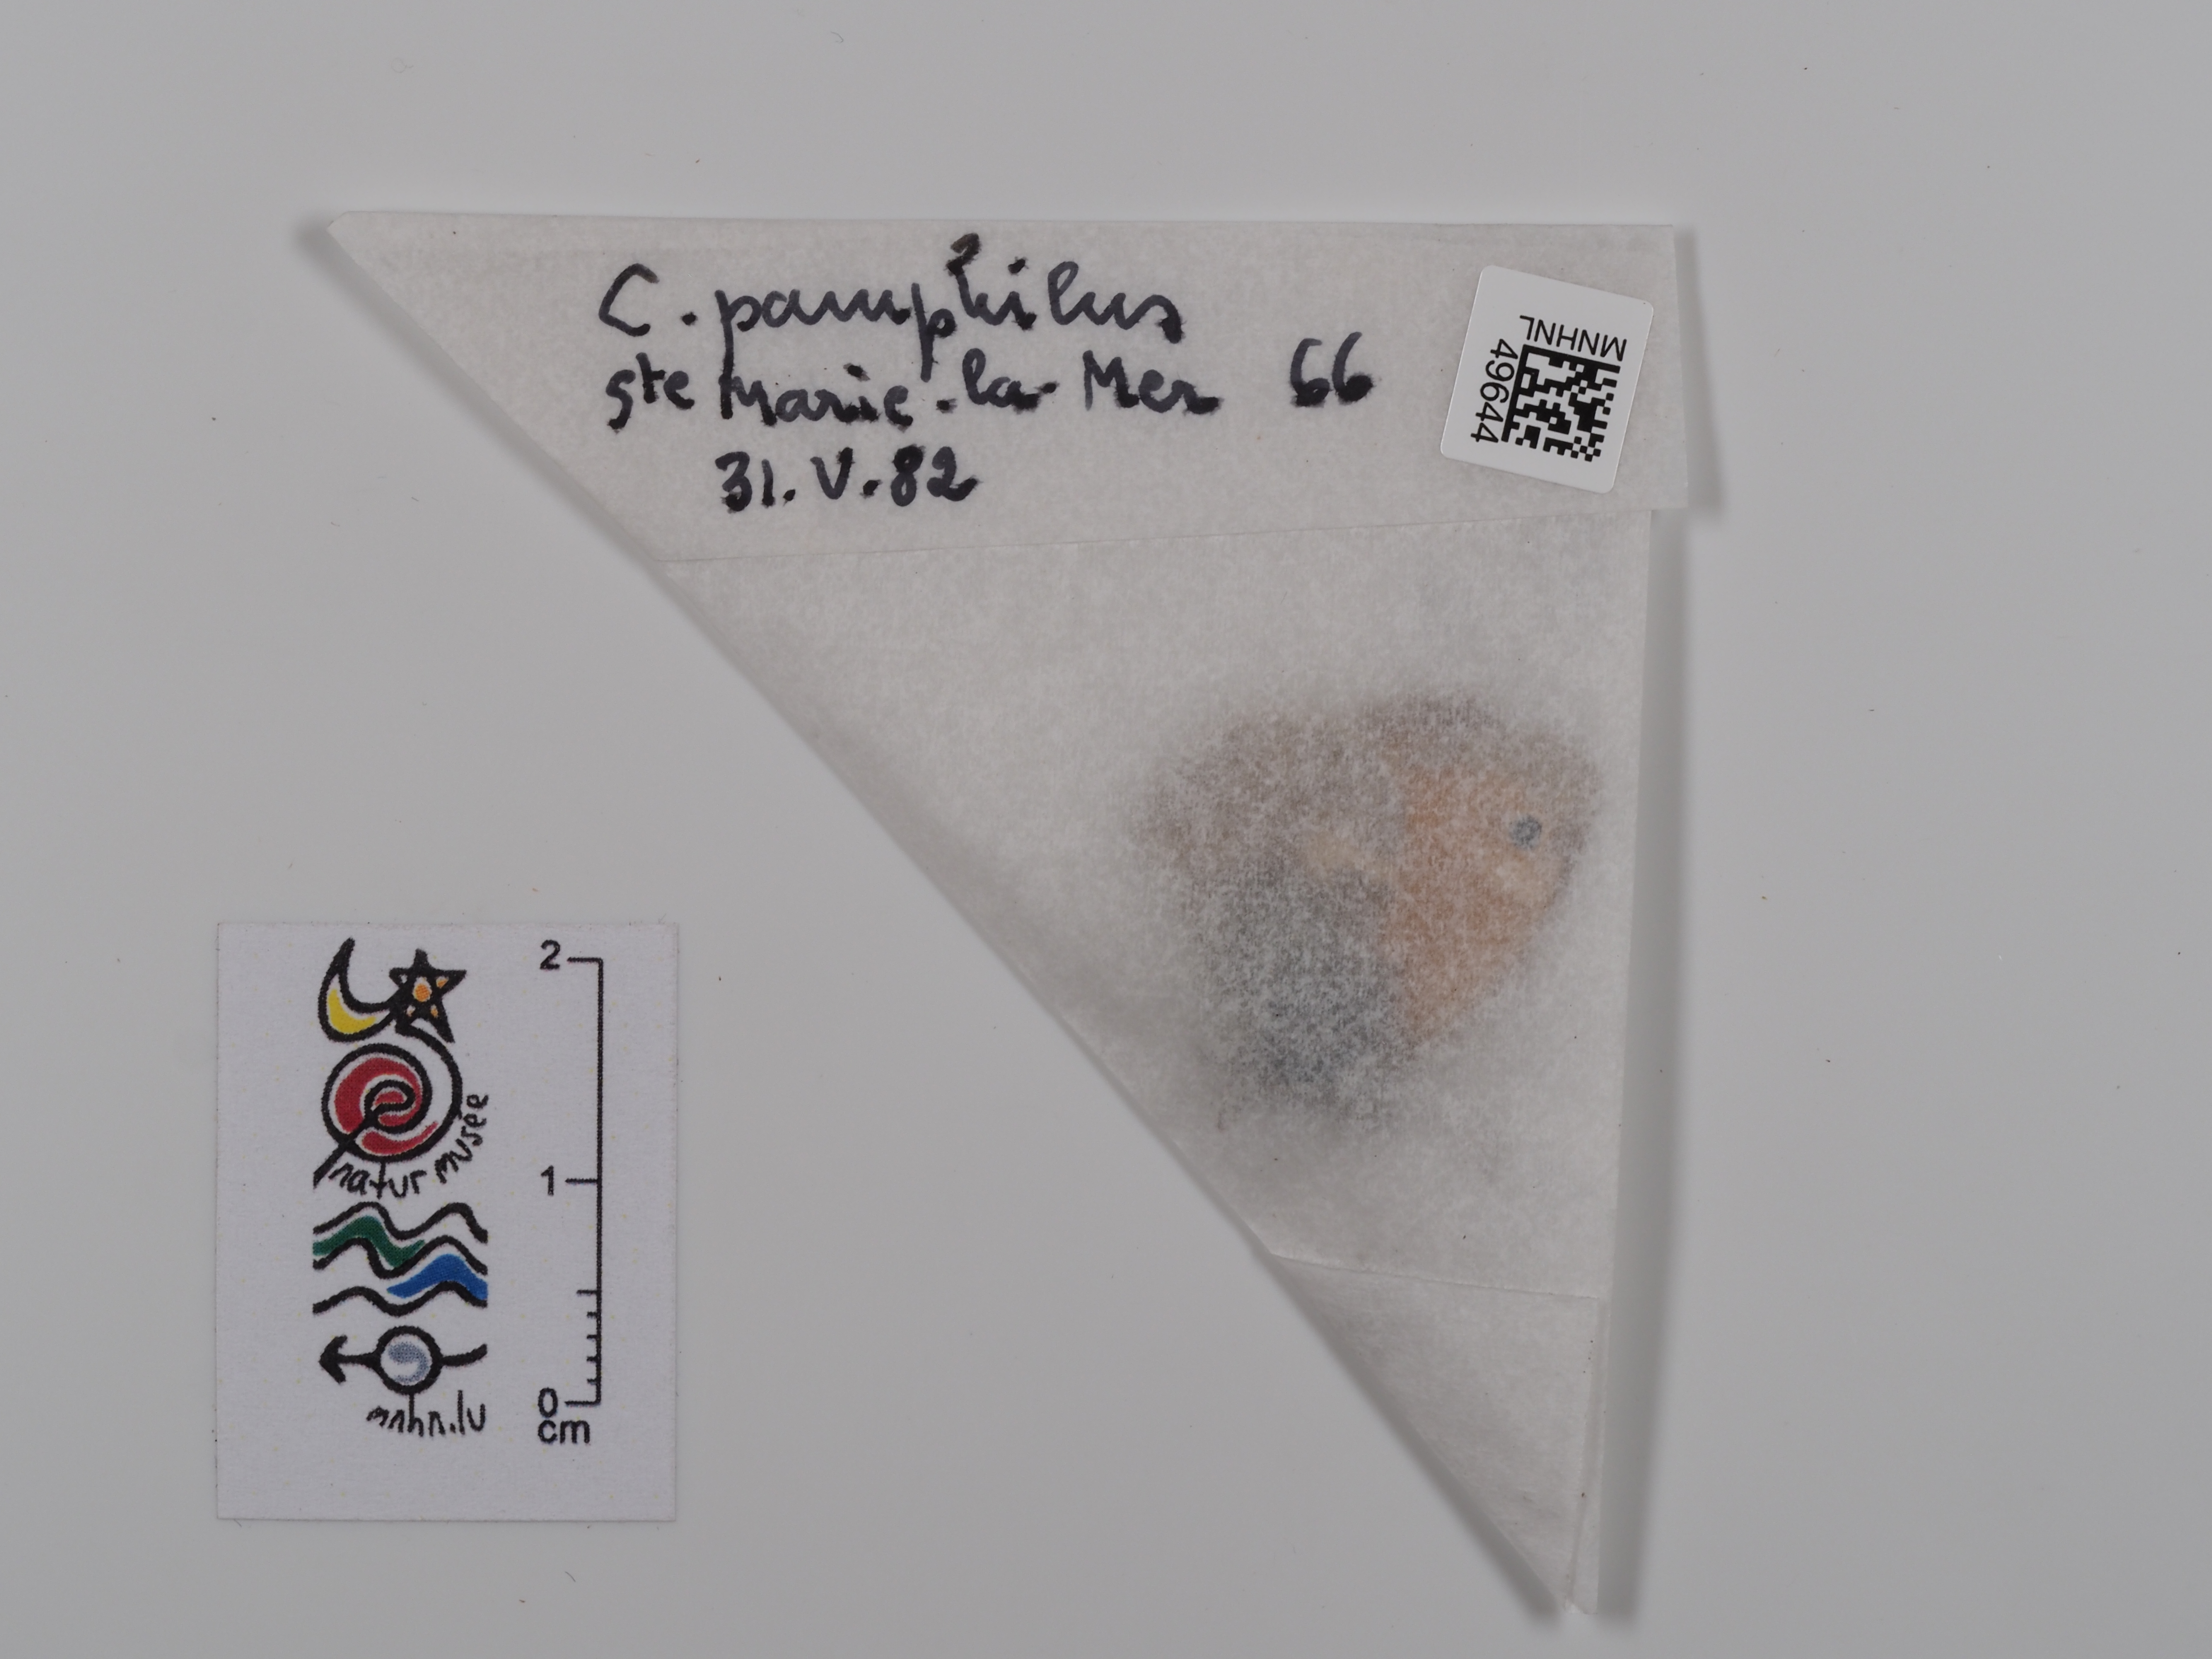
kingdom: Animalia
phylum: Arthropoda
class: Insecta
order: Lepidoptera
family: Nymphalidae
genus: Coenonympha
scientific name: Coenonympha pamphilus
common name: Small heath
